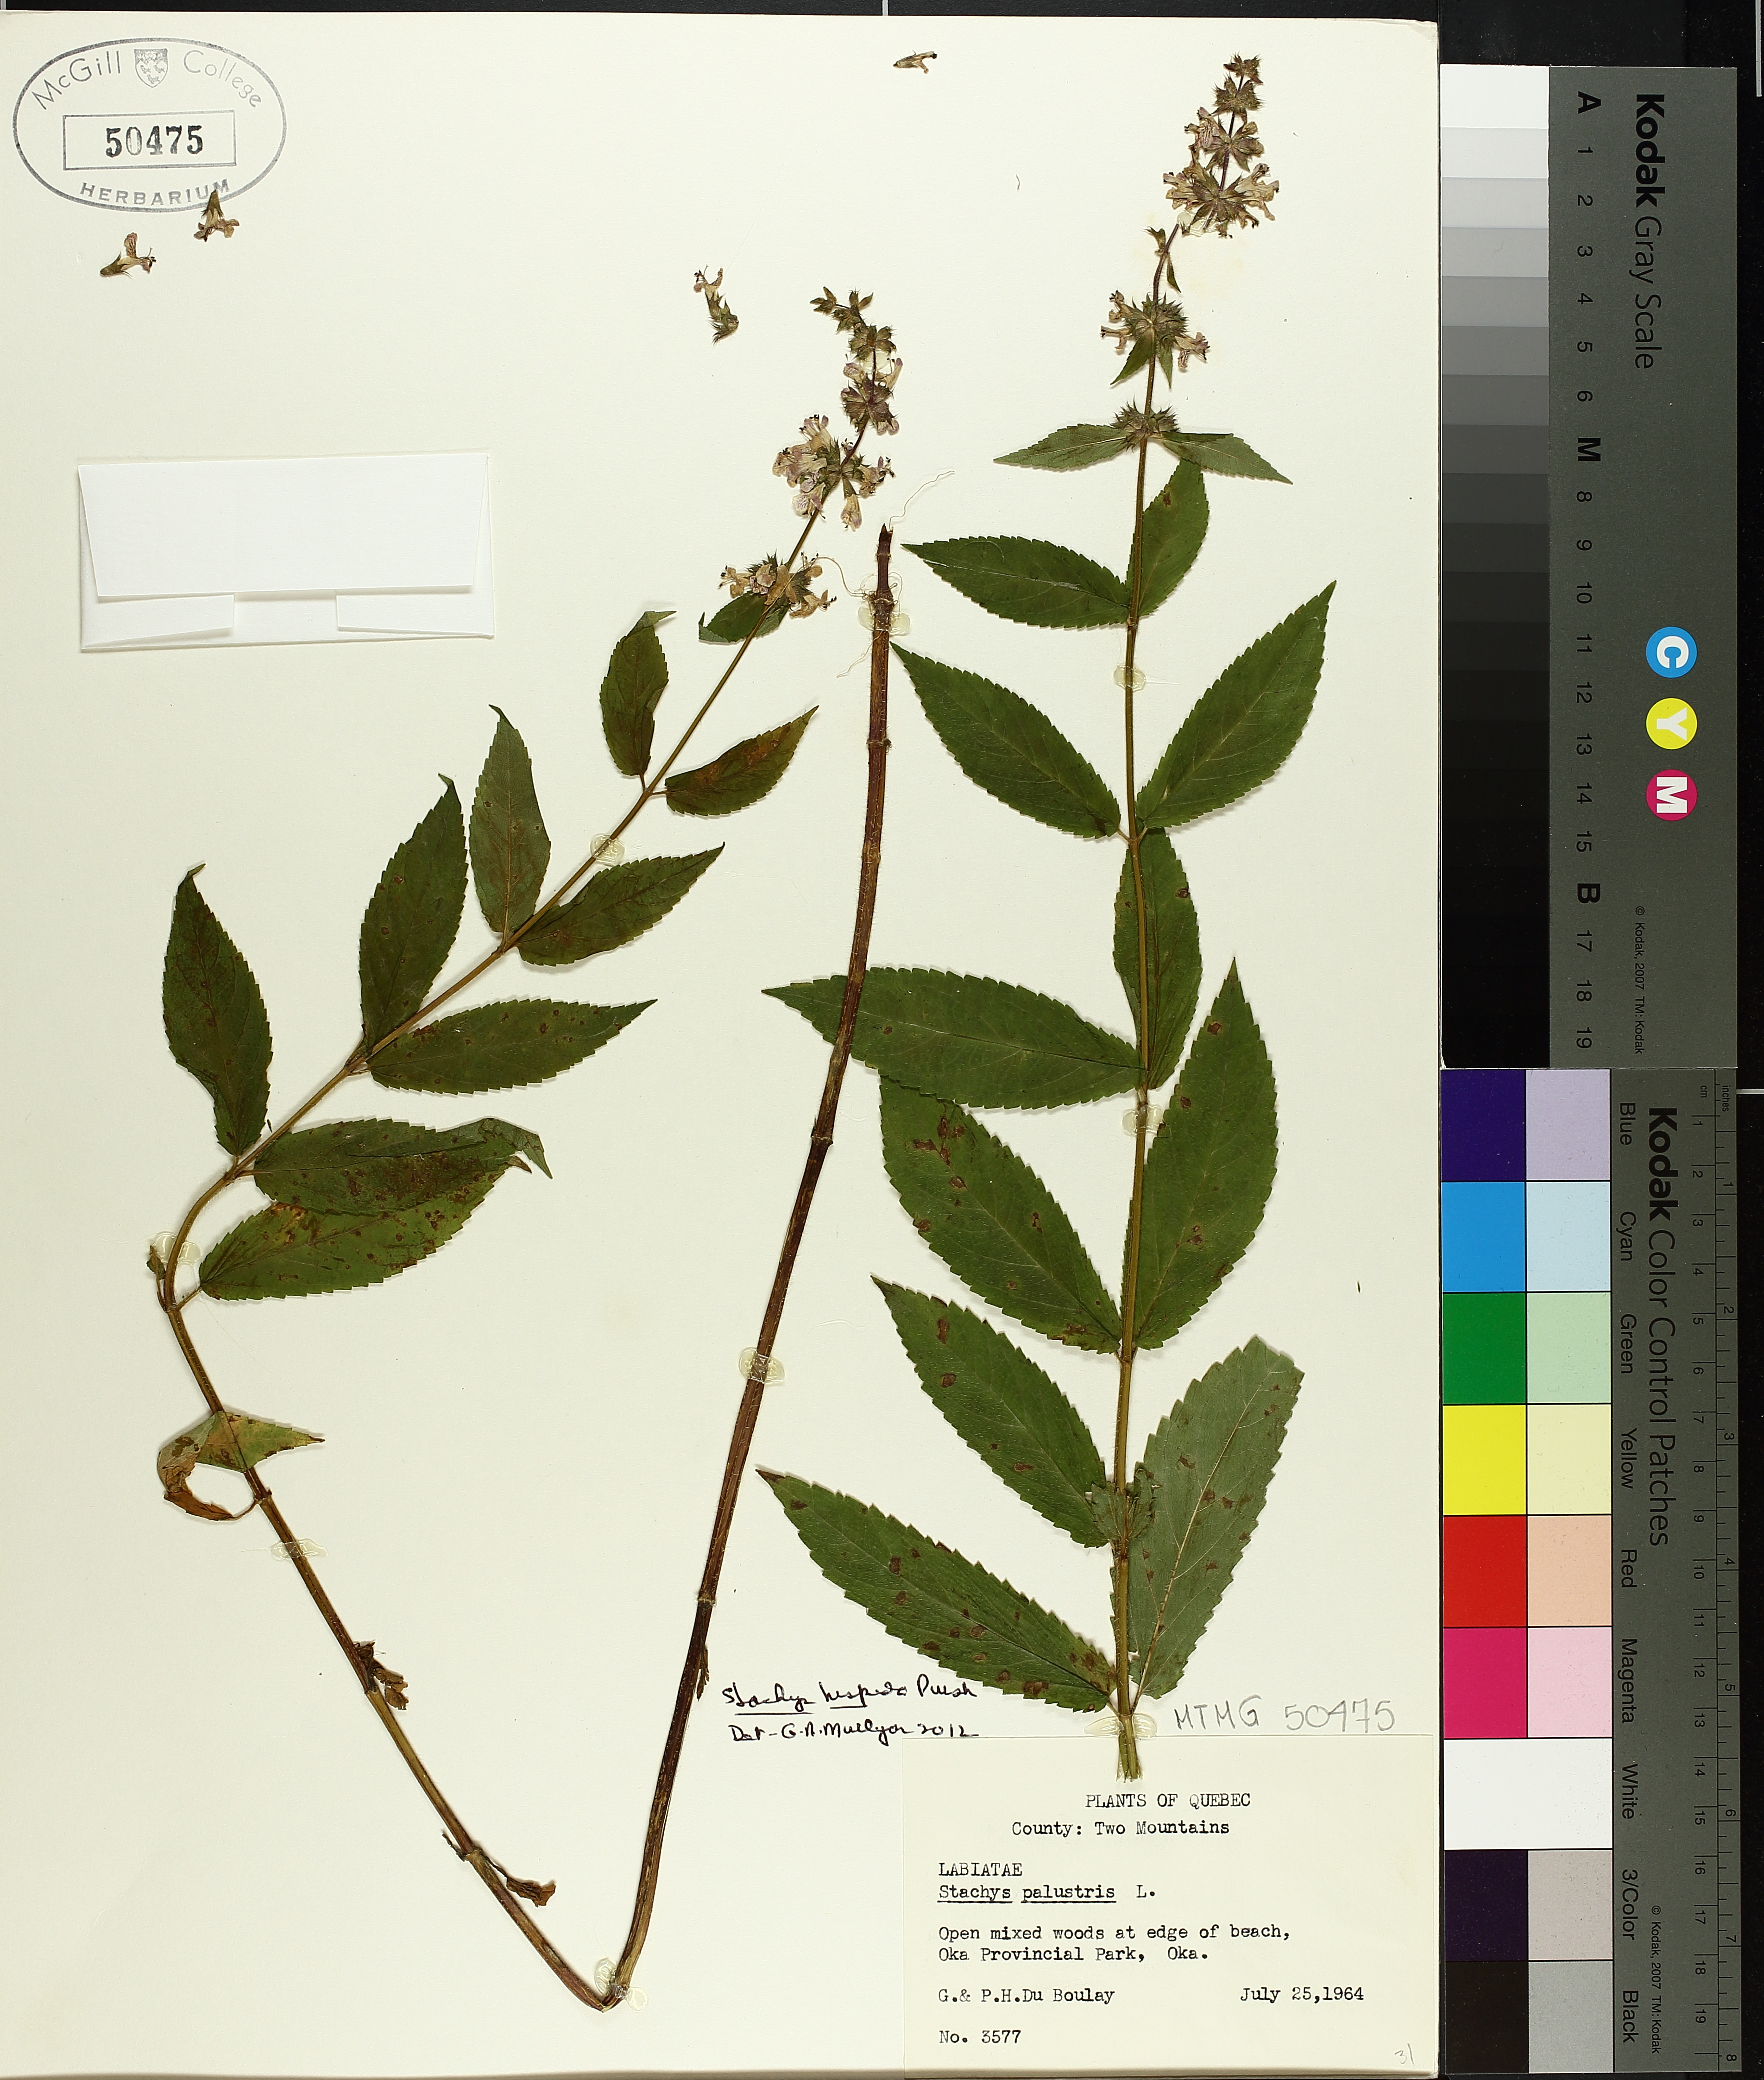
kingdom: Plantae
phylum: Tracheophyta
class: Magnoliopsida
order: Lamiales
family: Lamiaceae
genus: Stachys
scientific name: Stachys palustris
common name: Marsh woundwort
